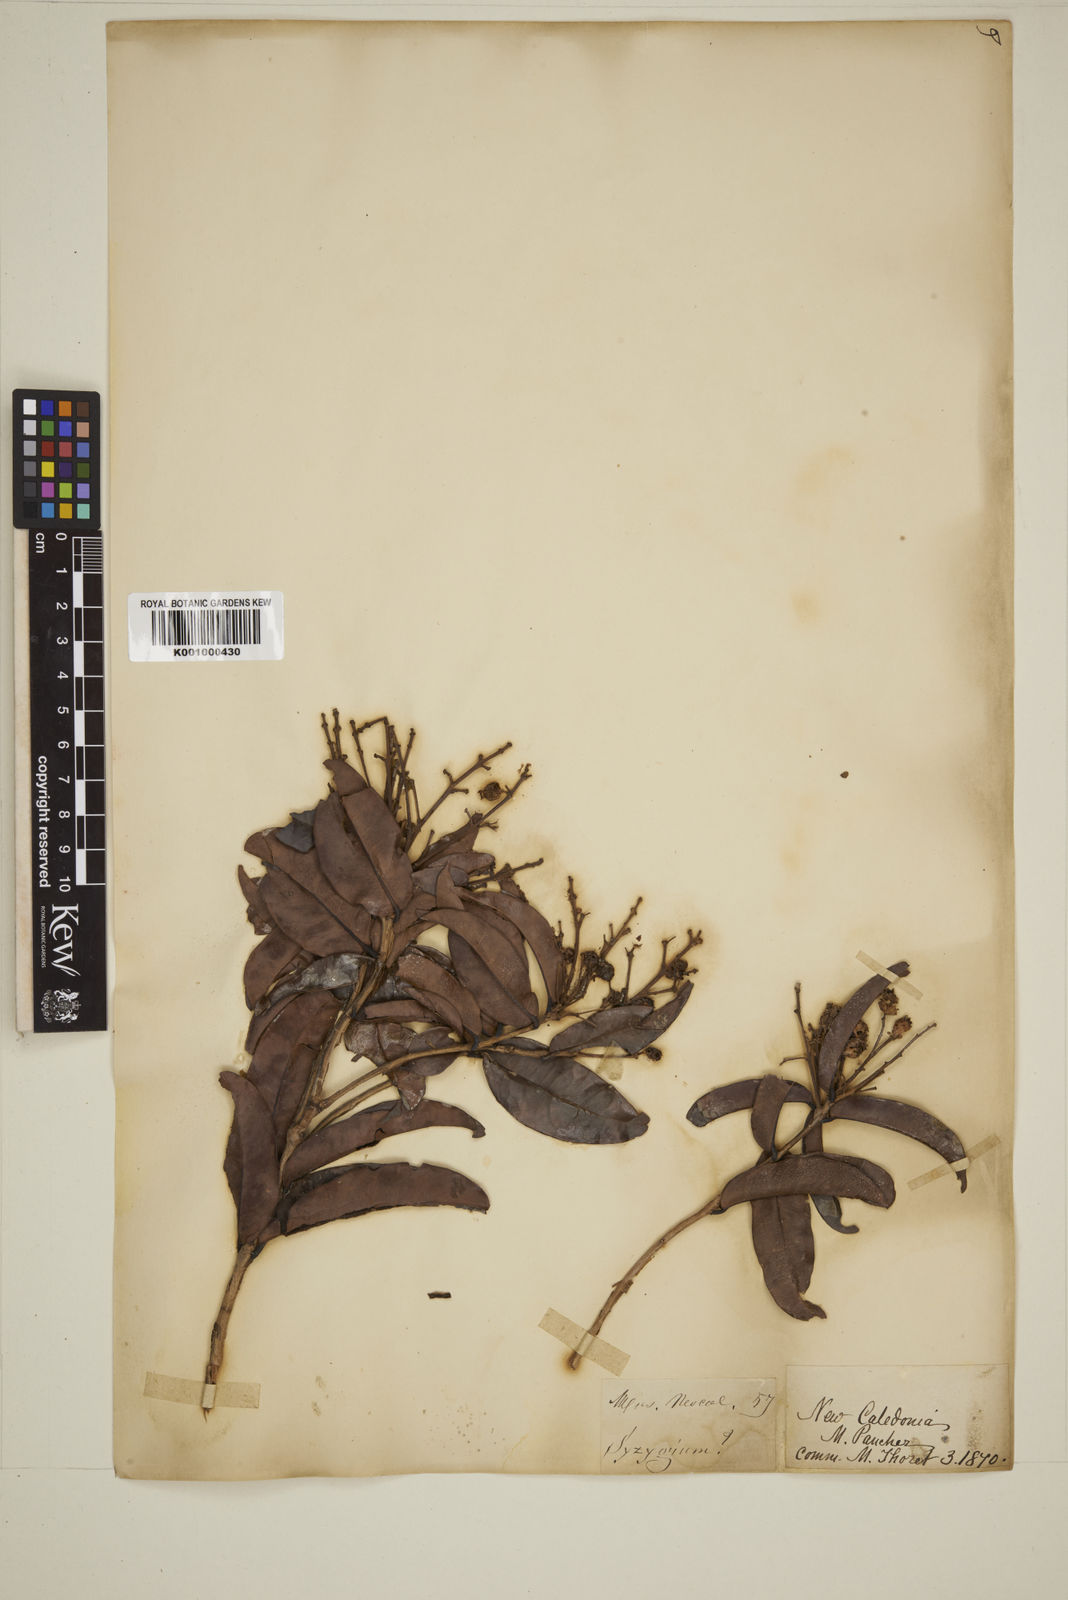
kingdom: Plantae
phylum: Tracheophyta
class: Magnoliopsida
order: Myrtales
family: Myrtaceae
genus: Eugenia
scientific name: Eugenia
